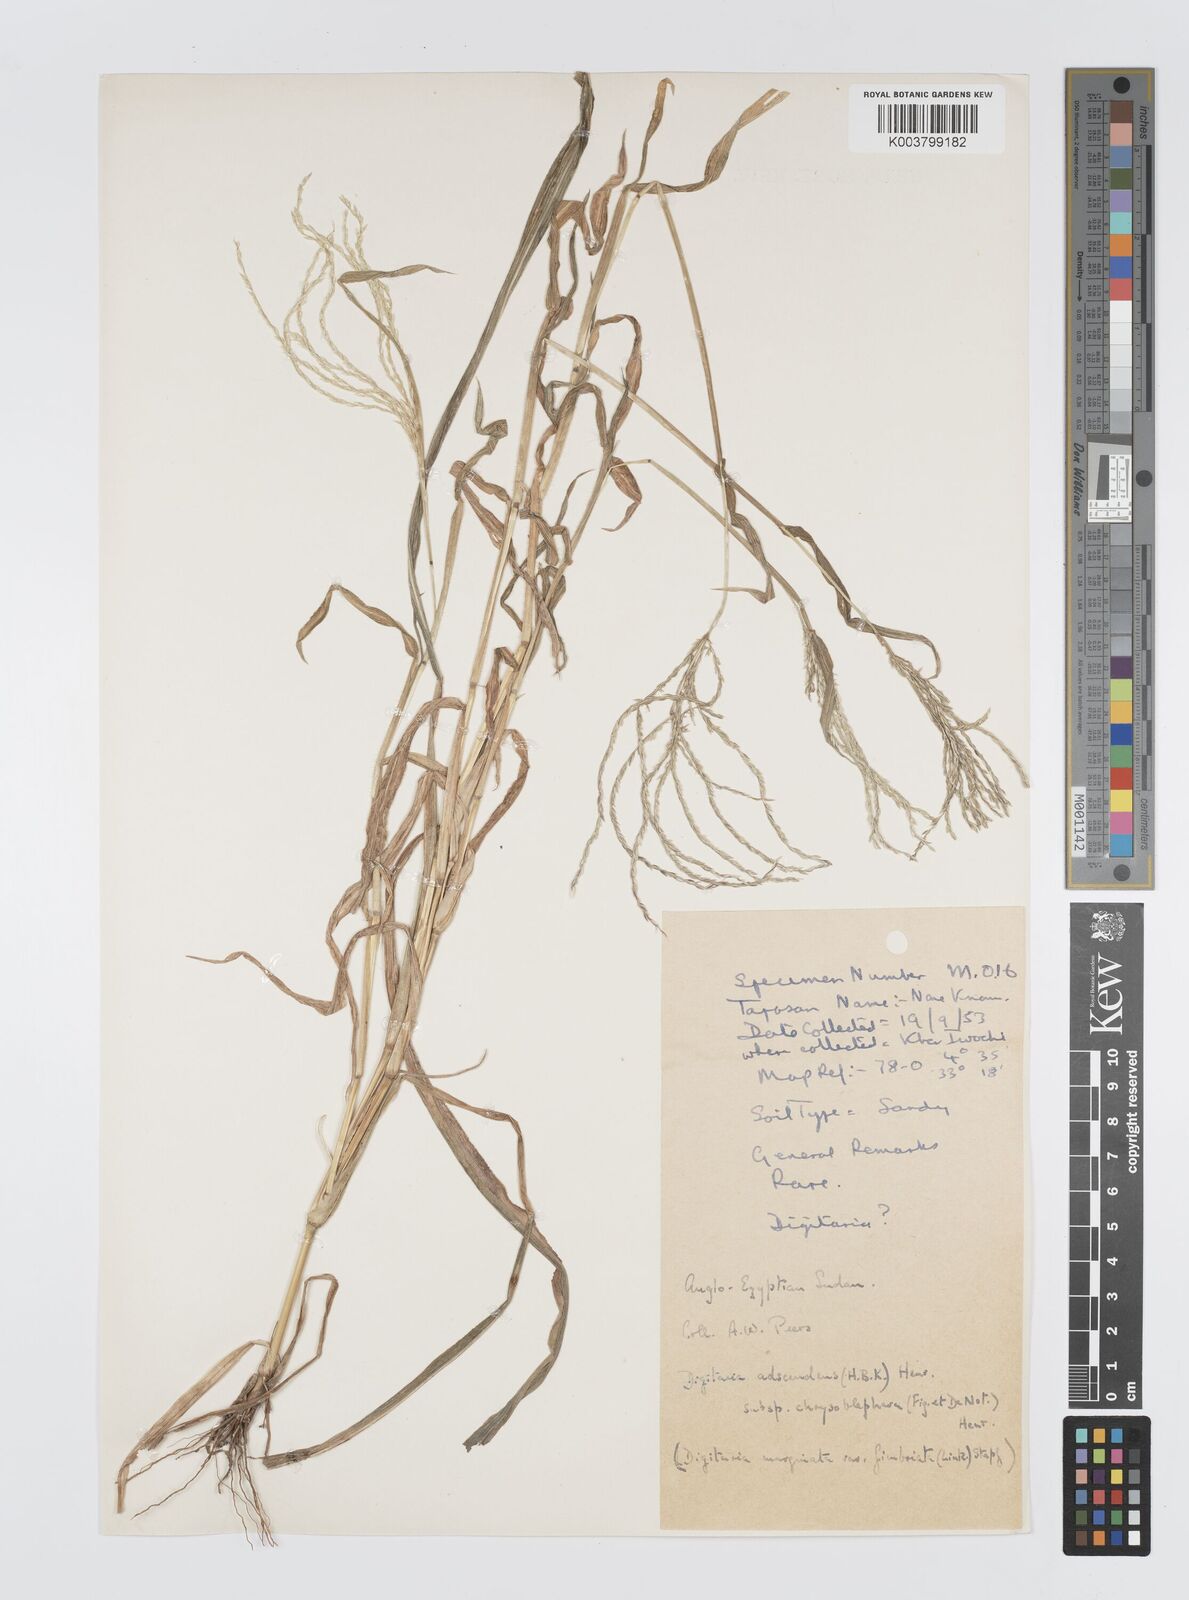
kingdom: Plantae
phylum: Tracheophyta
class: Liliopsida
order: Poales
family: Poaceae
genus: Digitaria
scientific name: Digitaria spec
